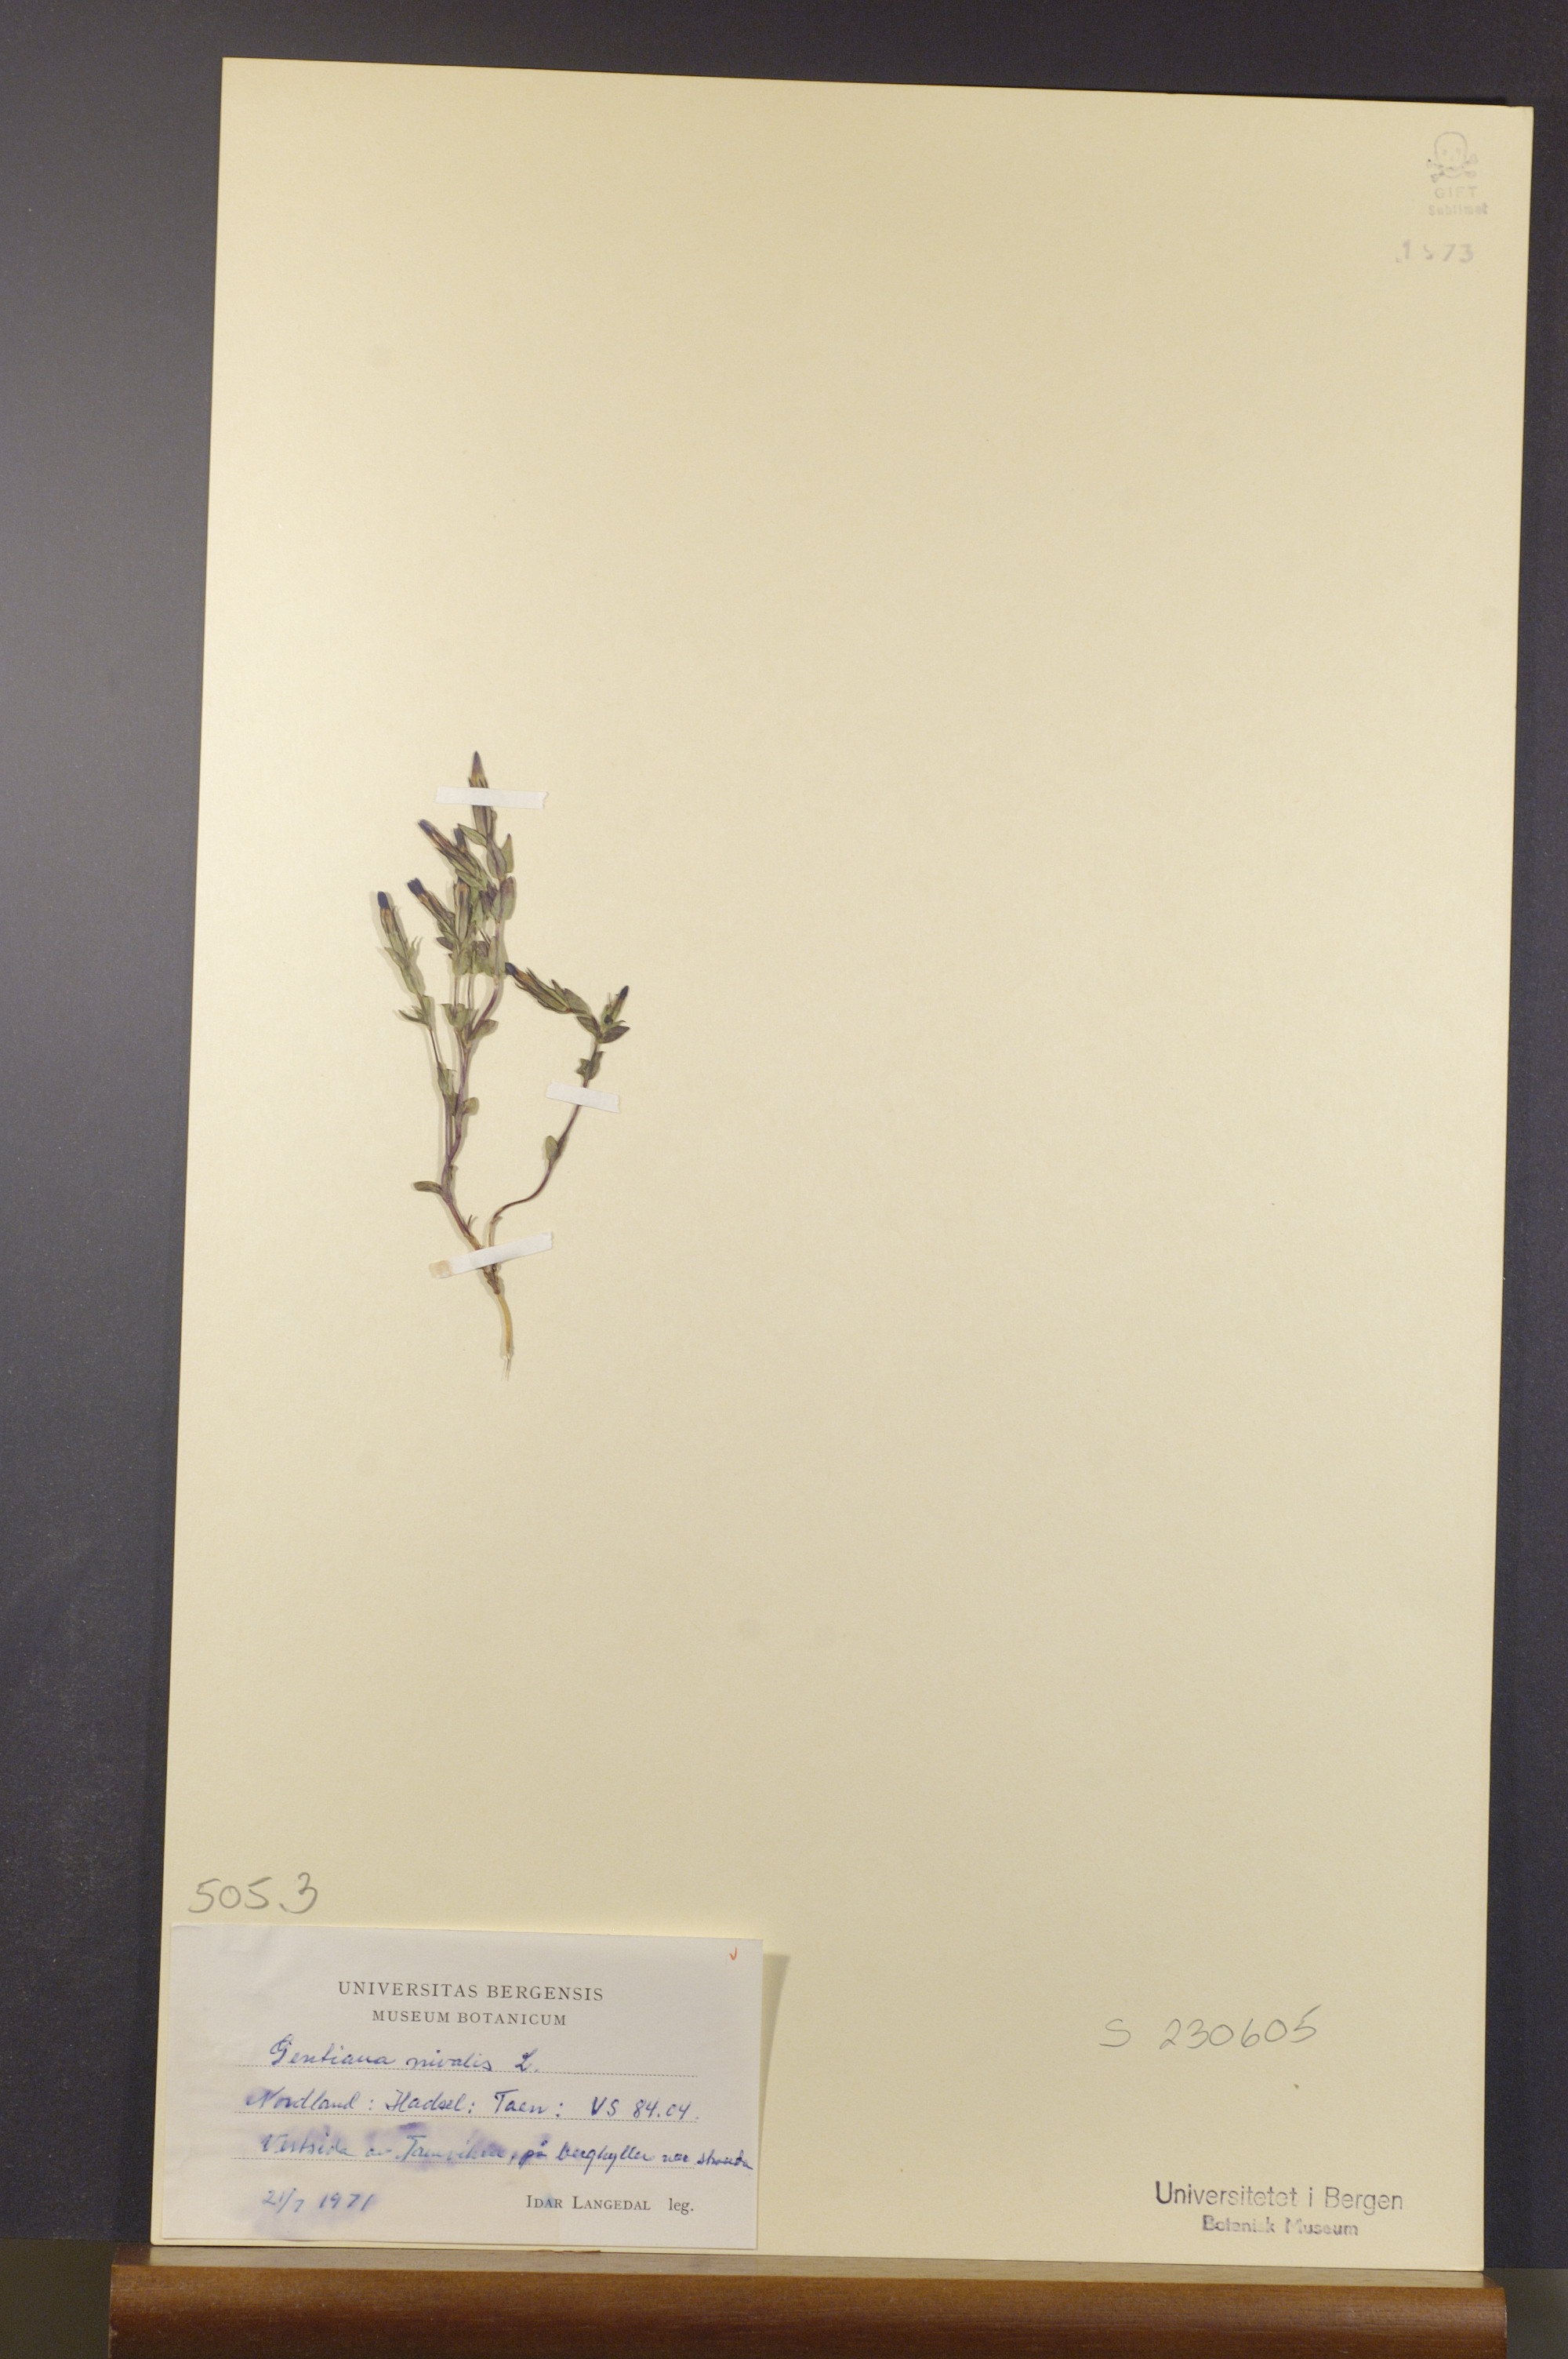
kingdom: Plantae
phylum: Tracheophyta
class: Magnoliopsida
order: Gentianales
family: Gentianaceae
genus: Gentiana
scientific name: Gentiana nivalis
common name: Alpine gentian
